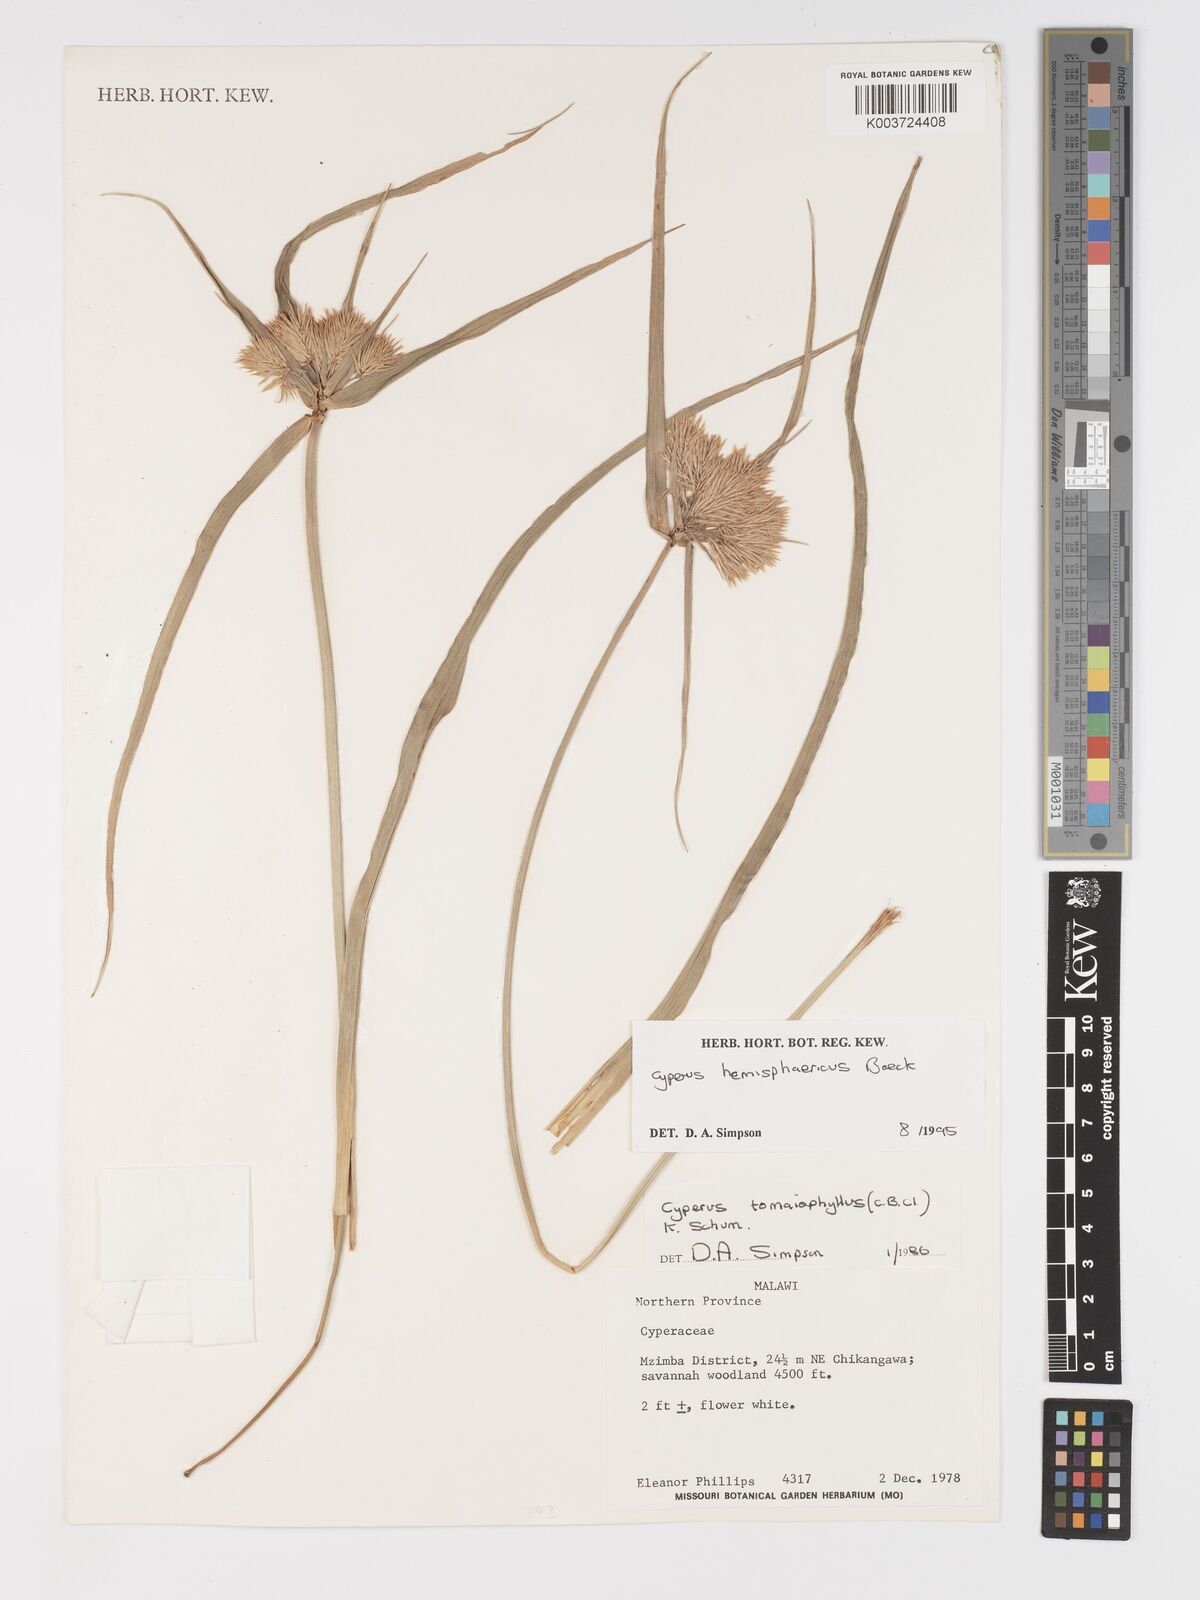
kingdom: Plantae
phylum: Tracheophyta
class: Liliopsida
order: Poales
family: Cyperaceae
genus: Cyperus
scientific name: Cyperus hemisphaericus
